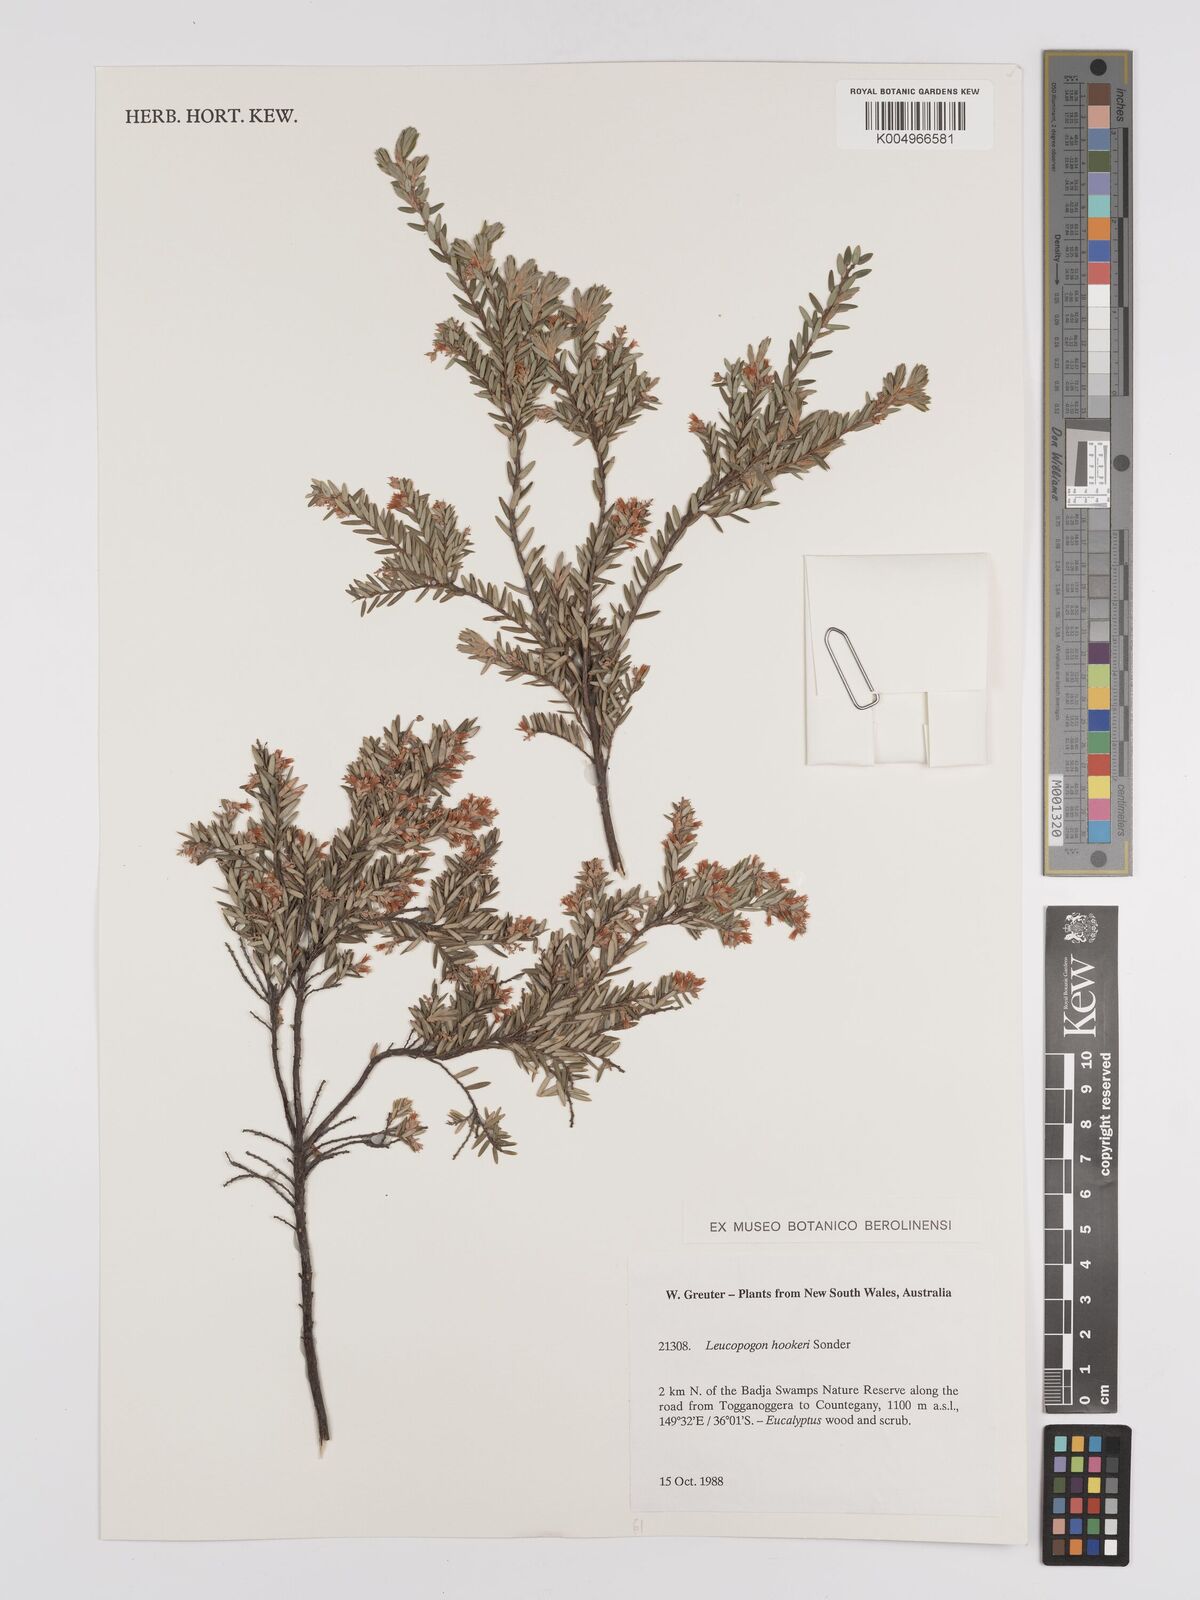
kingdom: Plantae
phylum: Tracheophyta
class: Magnoliopsida
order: Ericales
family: Ericaceae
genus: Acrothamnus
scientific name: Acrothamnus hookeri
